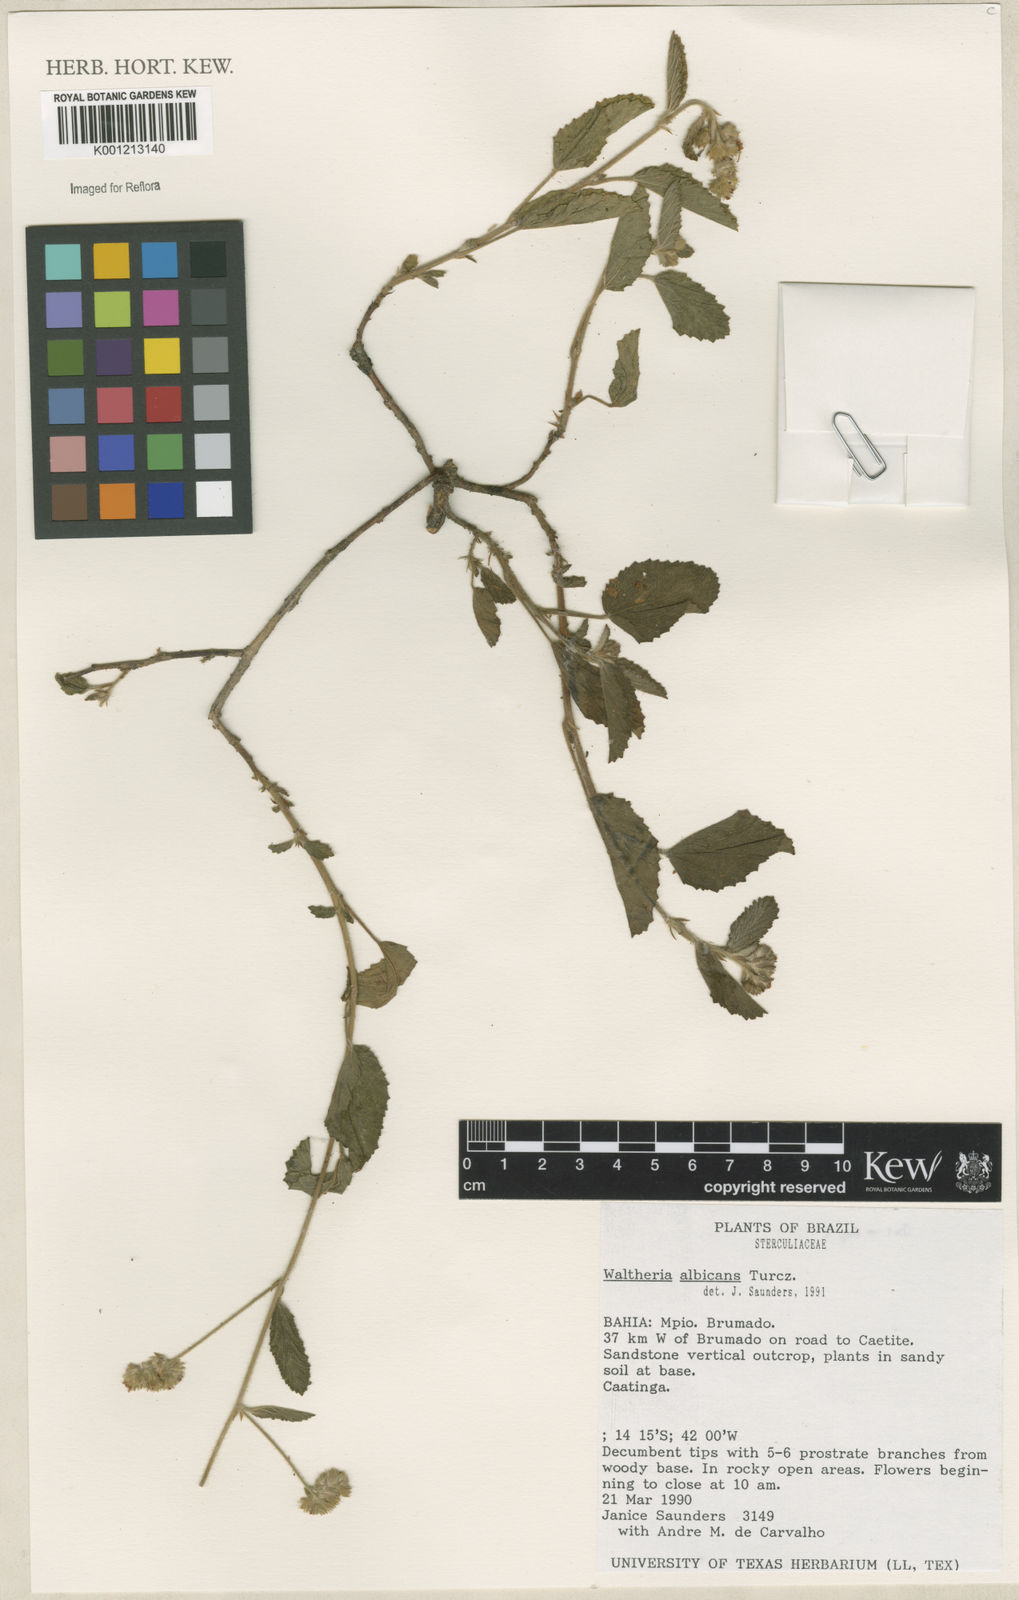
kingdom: Plantae
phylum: Tracheophyta
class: Magnoliopsida
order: Malvales
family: Malvaceae
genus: Waltheria
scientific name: Waltheria albicans
